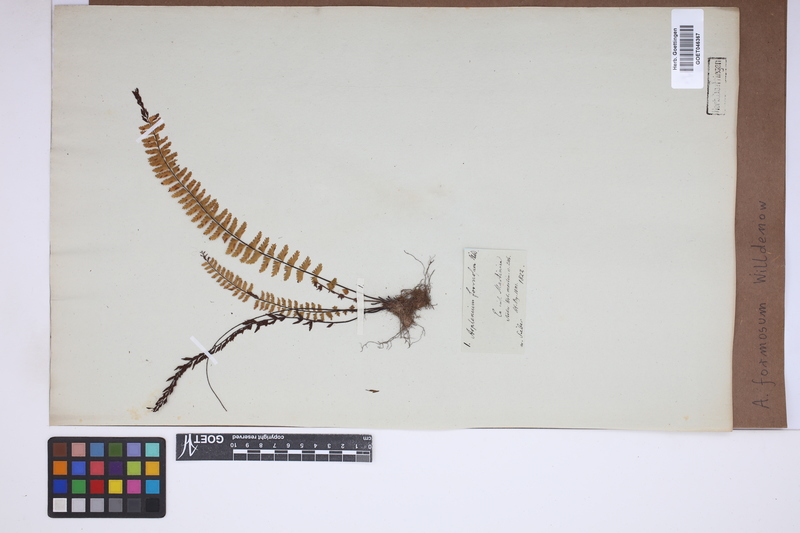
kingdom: Plantae
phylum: Tracheophyta
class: Polypodiopsida
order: Polypodiales
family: Aspleniaceae
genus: Asplenium
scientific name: Asplenium formosum
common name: Showy spleenwort
